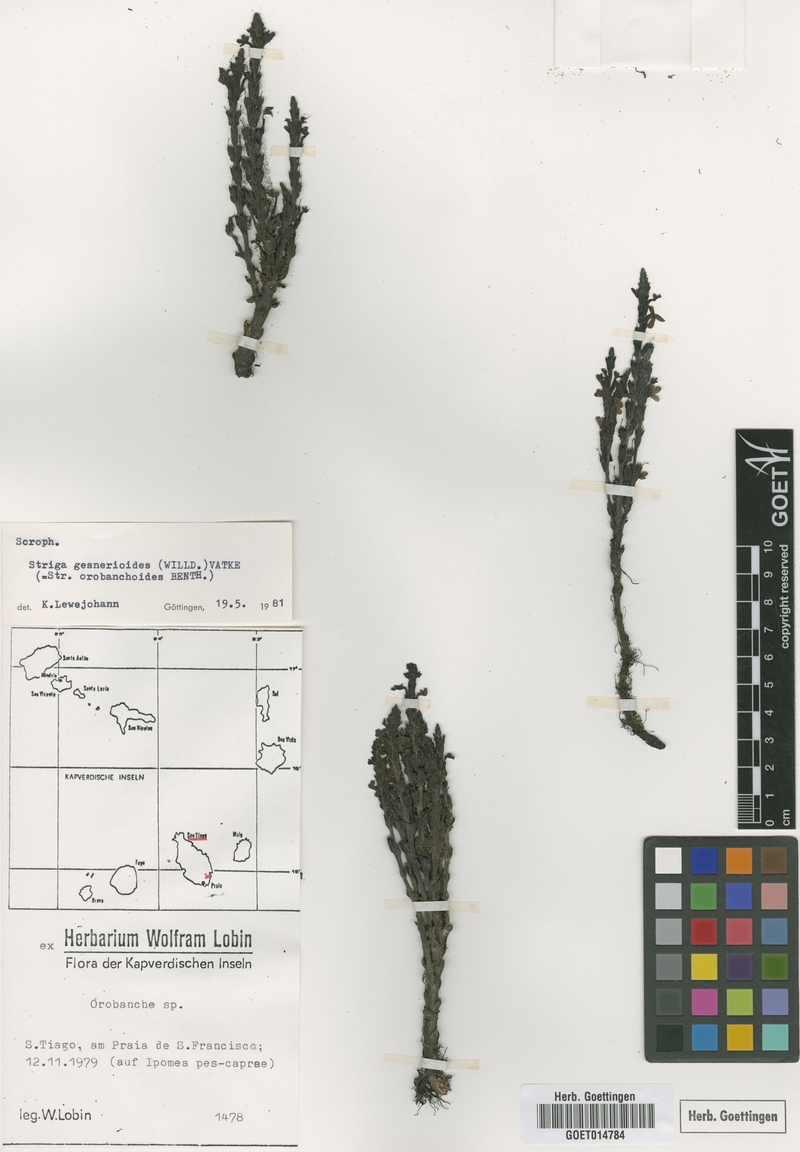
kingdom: Plantae
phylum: Tracheophyta
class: Magnoliopsida
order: Lamiales
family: Orobanchaceae
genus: Striga
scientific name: Striga gesnerioides
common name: Cowpea witchweed
